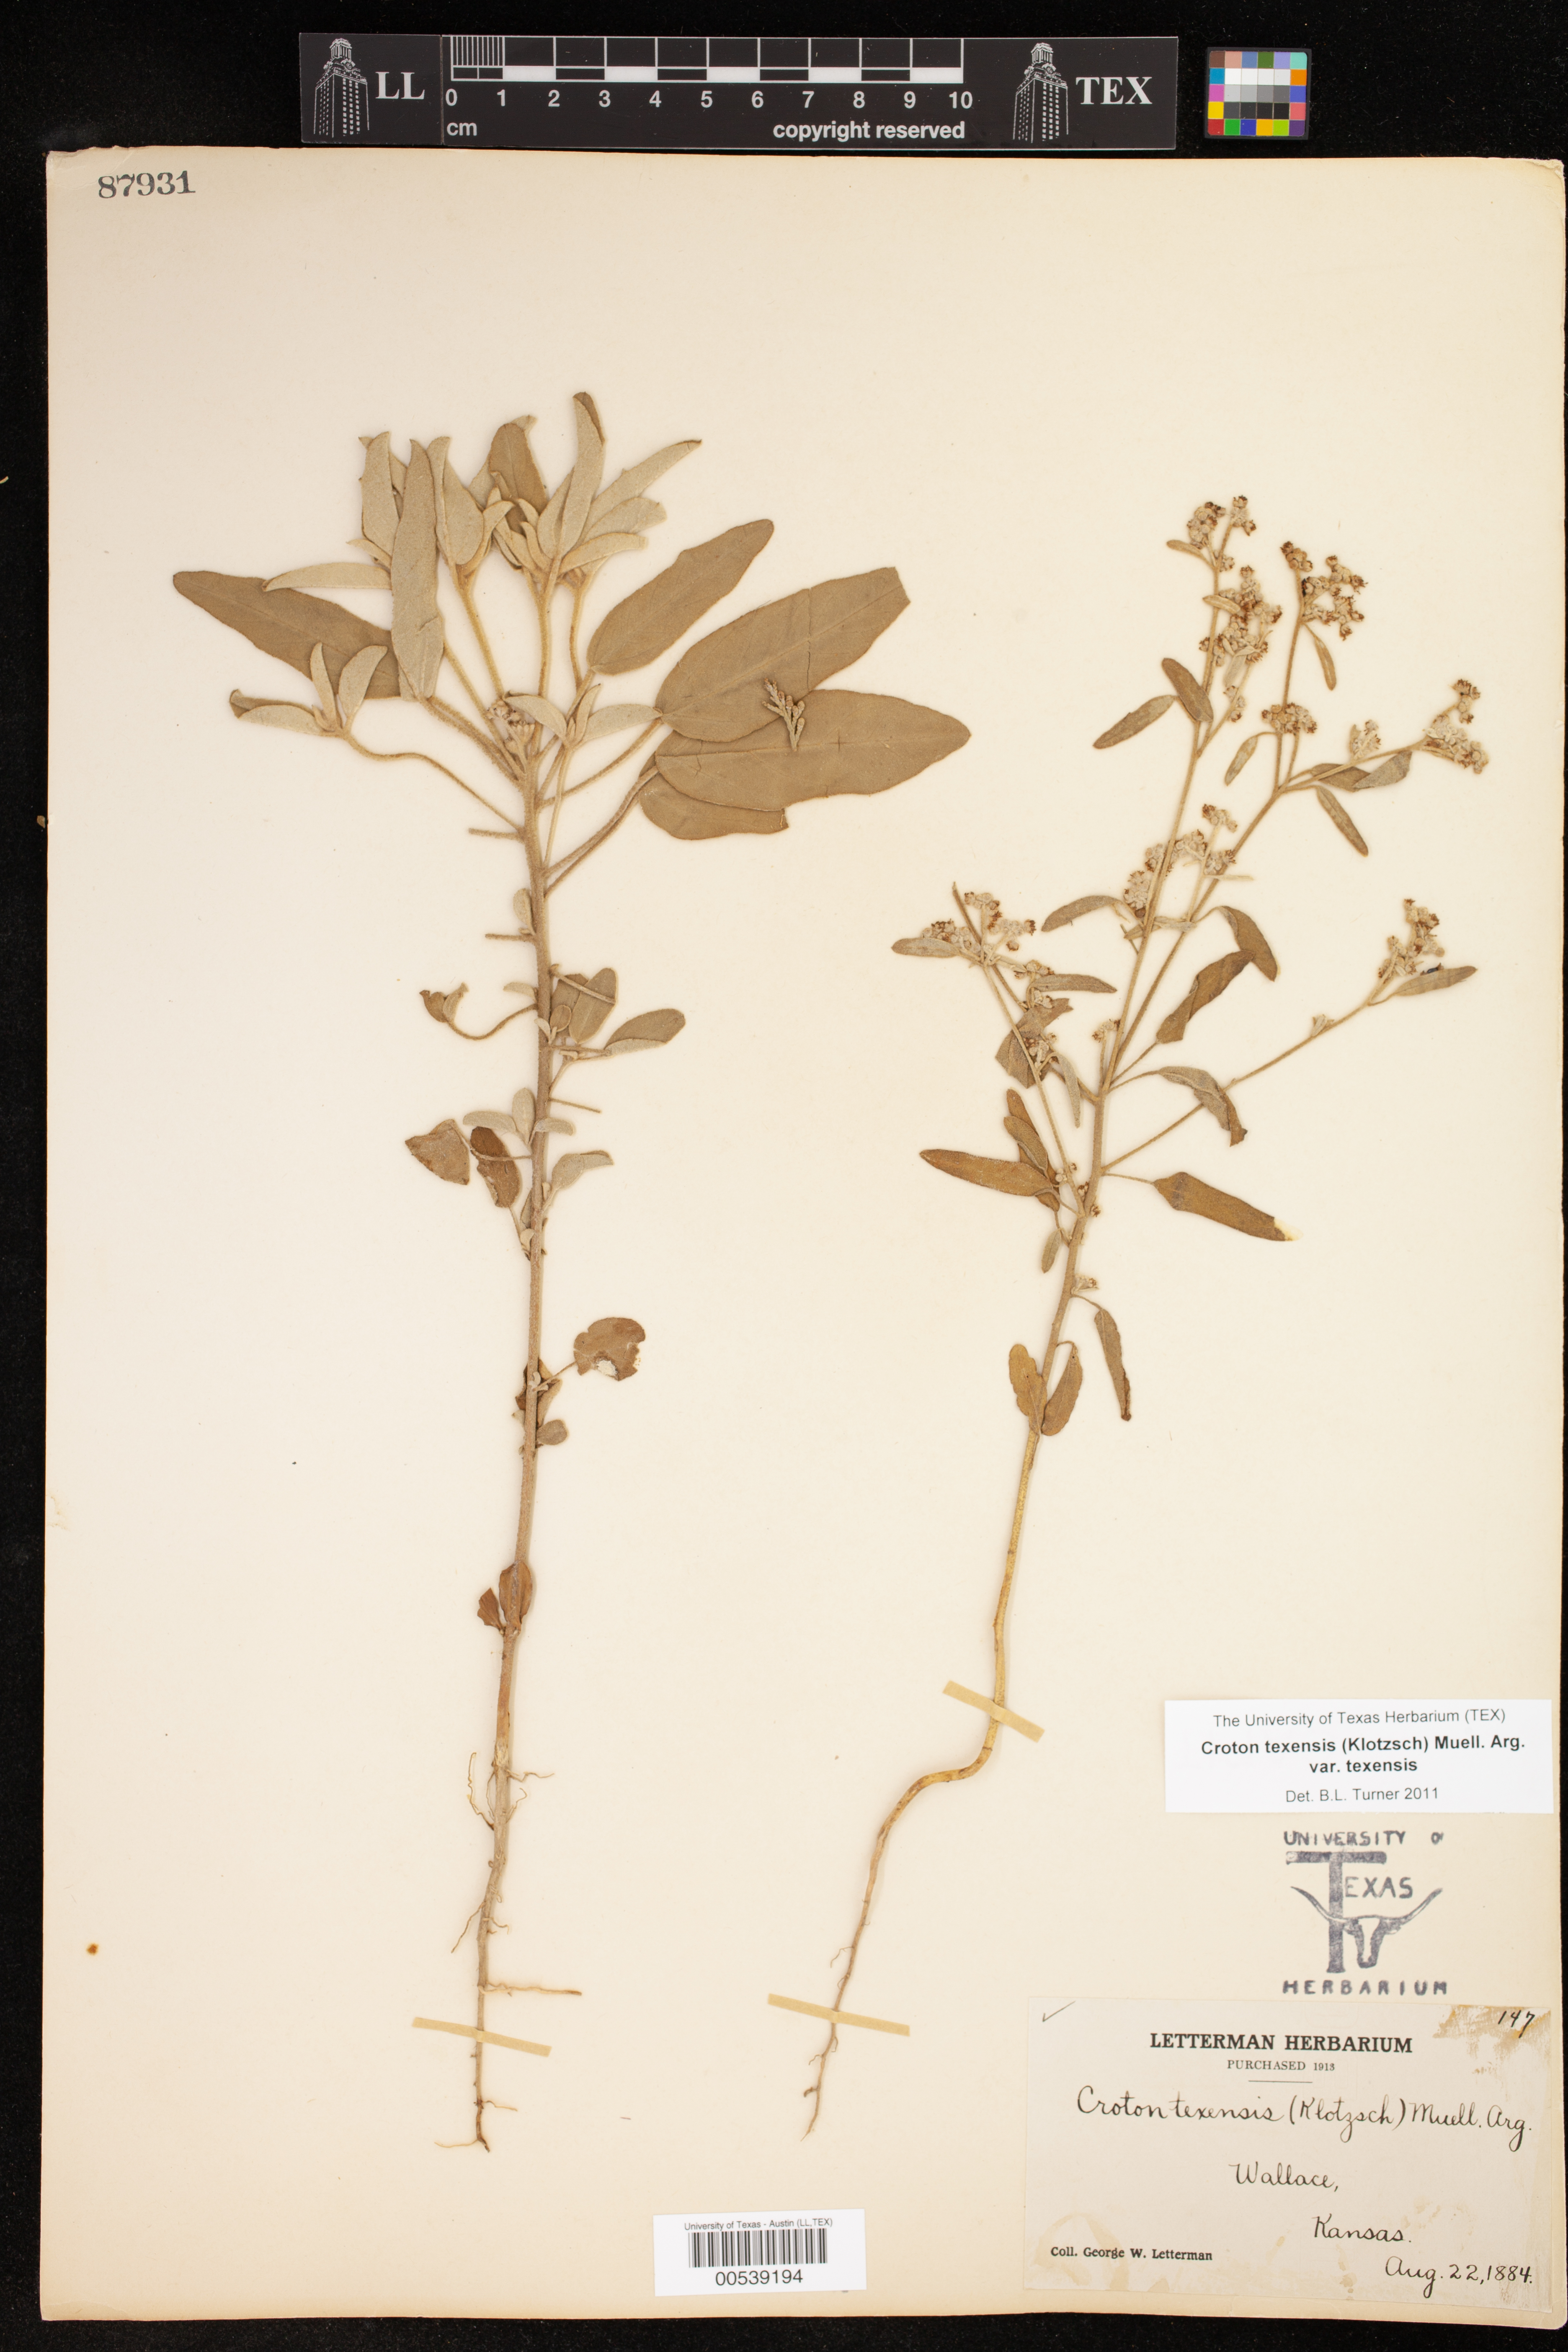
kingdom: Plantae
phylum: Tracheophyta
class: Magnoliopsida
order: Malpighiales
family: Euphorbiaceae
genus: Croton
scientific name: Croton texensis
